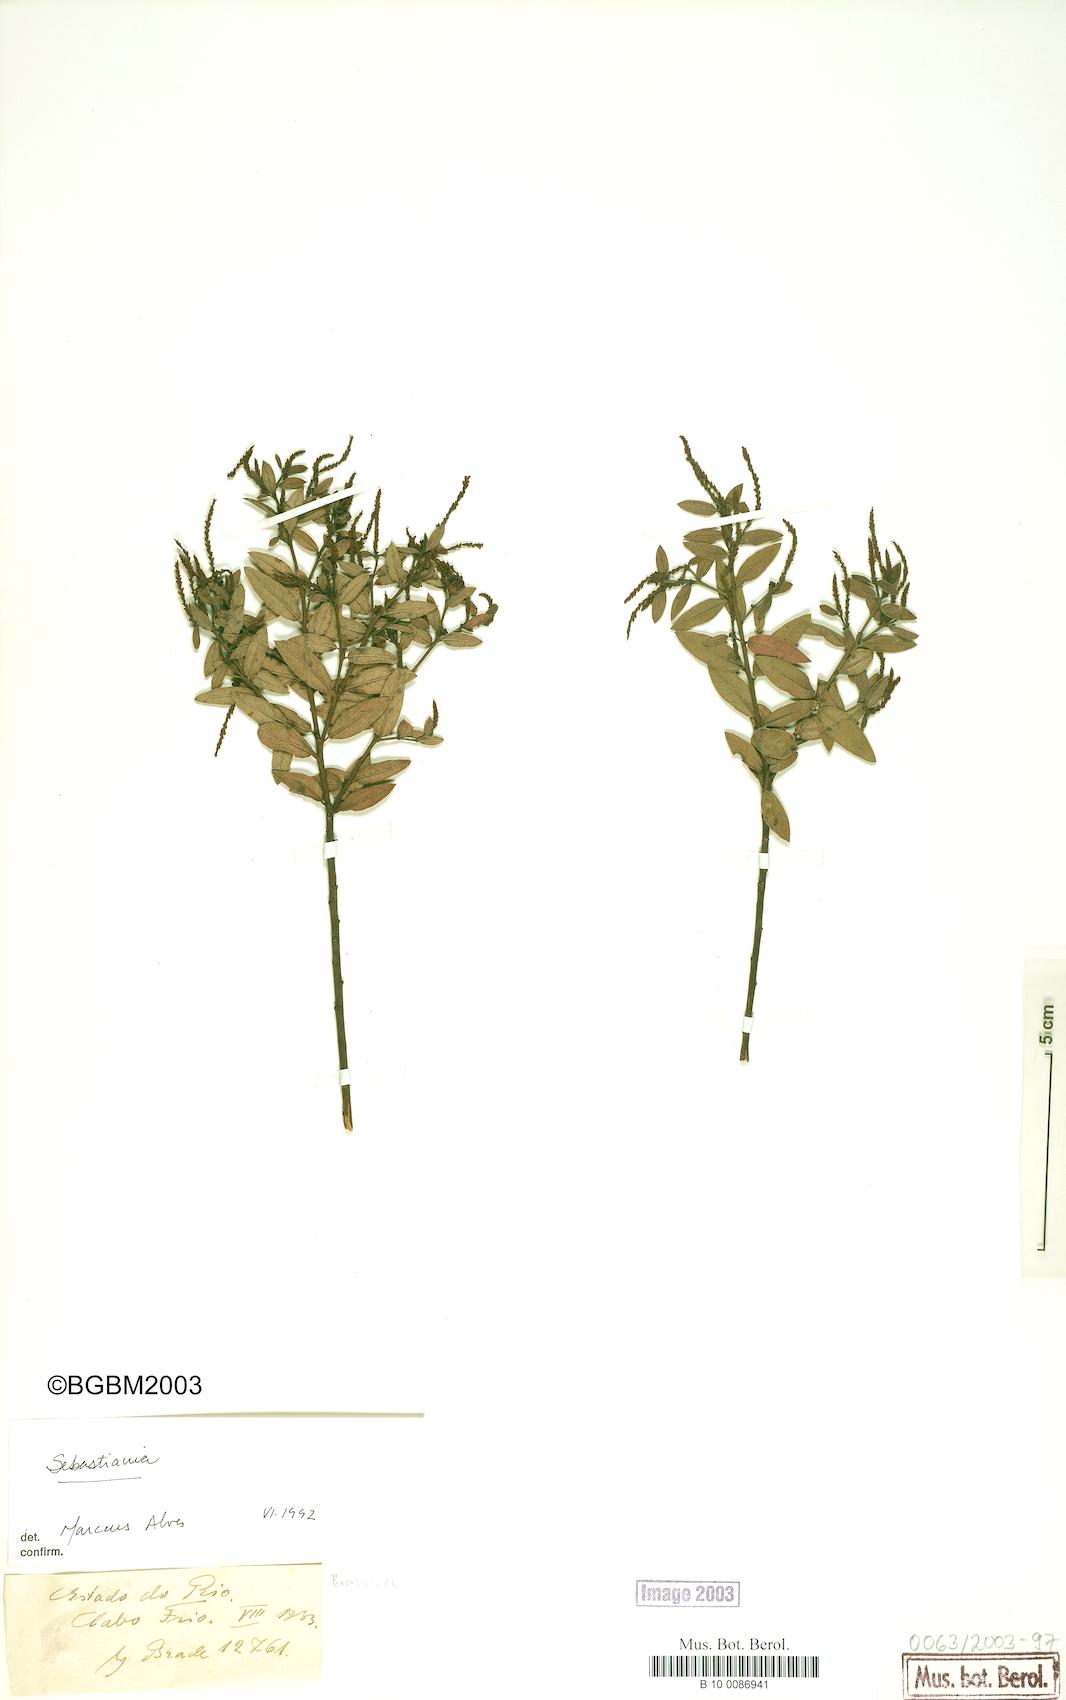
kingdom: Plantae
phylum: Tracheophyta
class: Magnoliopsida
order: Malpighiales
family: Euphorbiaceae
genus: Microstachys
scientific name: Microstachys glandulosa
